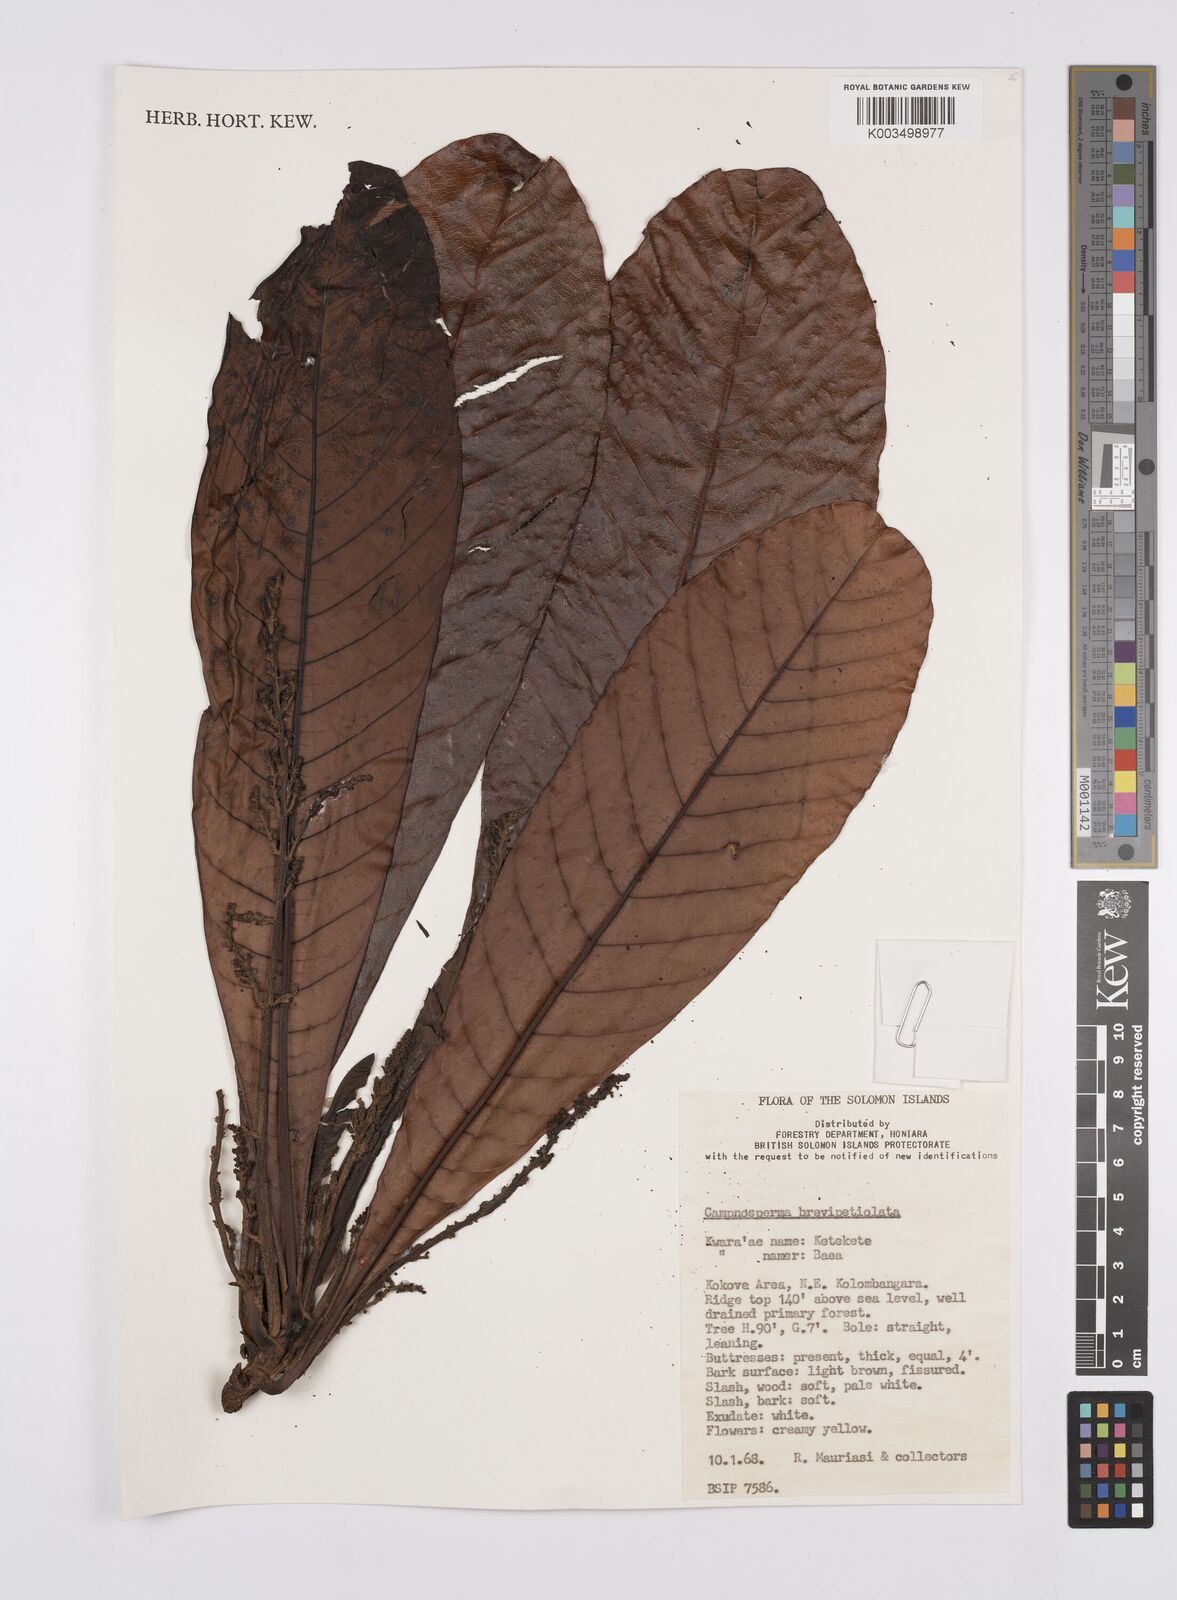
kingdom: Plantae
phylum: Tracheophyta
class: Magnoliopsida
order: Sapindales
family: Anacardiaceae
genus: Campnosperma
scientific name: Campnosperma brevipetiolatum
